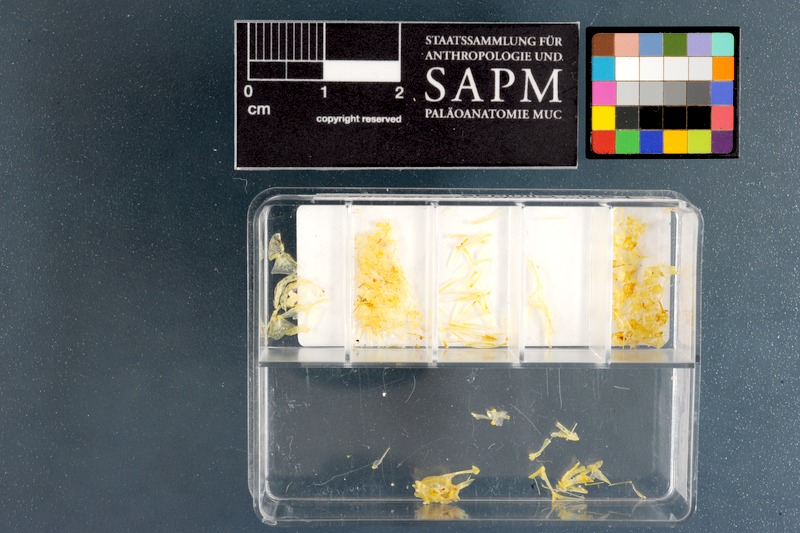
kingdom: Animalia
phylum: Chordata
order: Perciformes
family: Clinidae
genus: Climacoporus
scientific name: Climacoporus navalis
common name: Fleet klipfish
